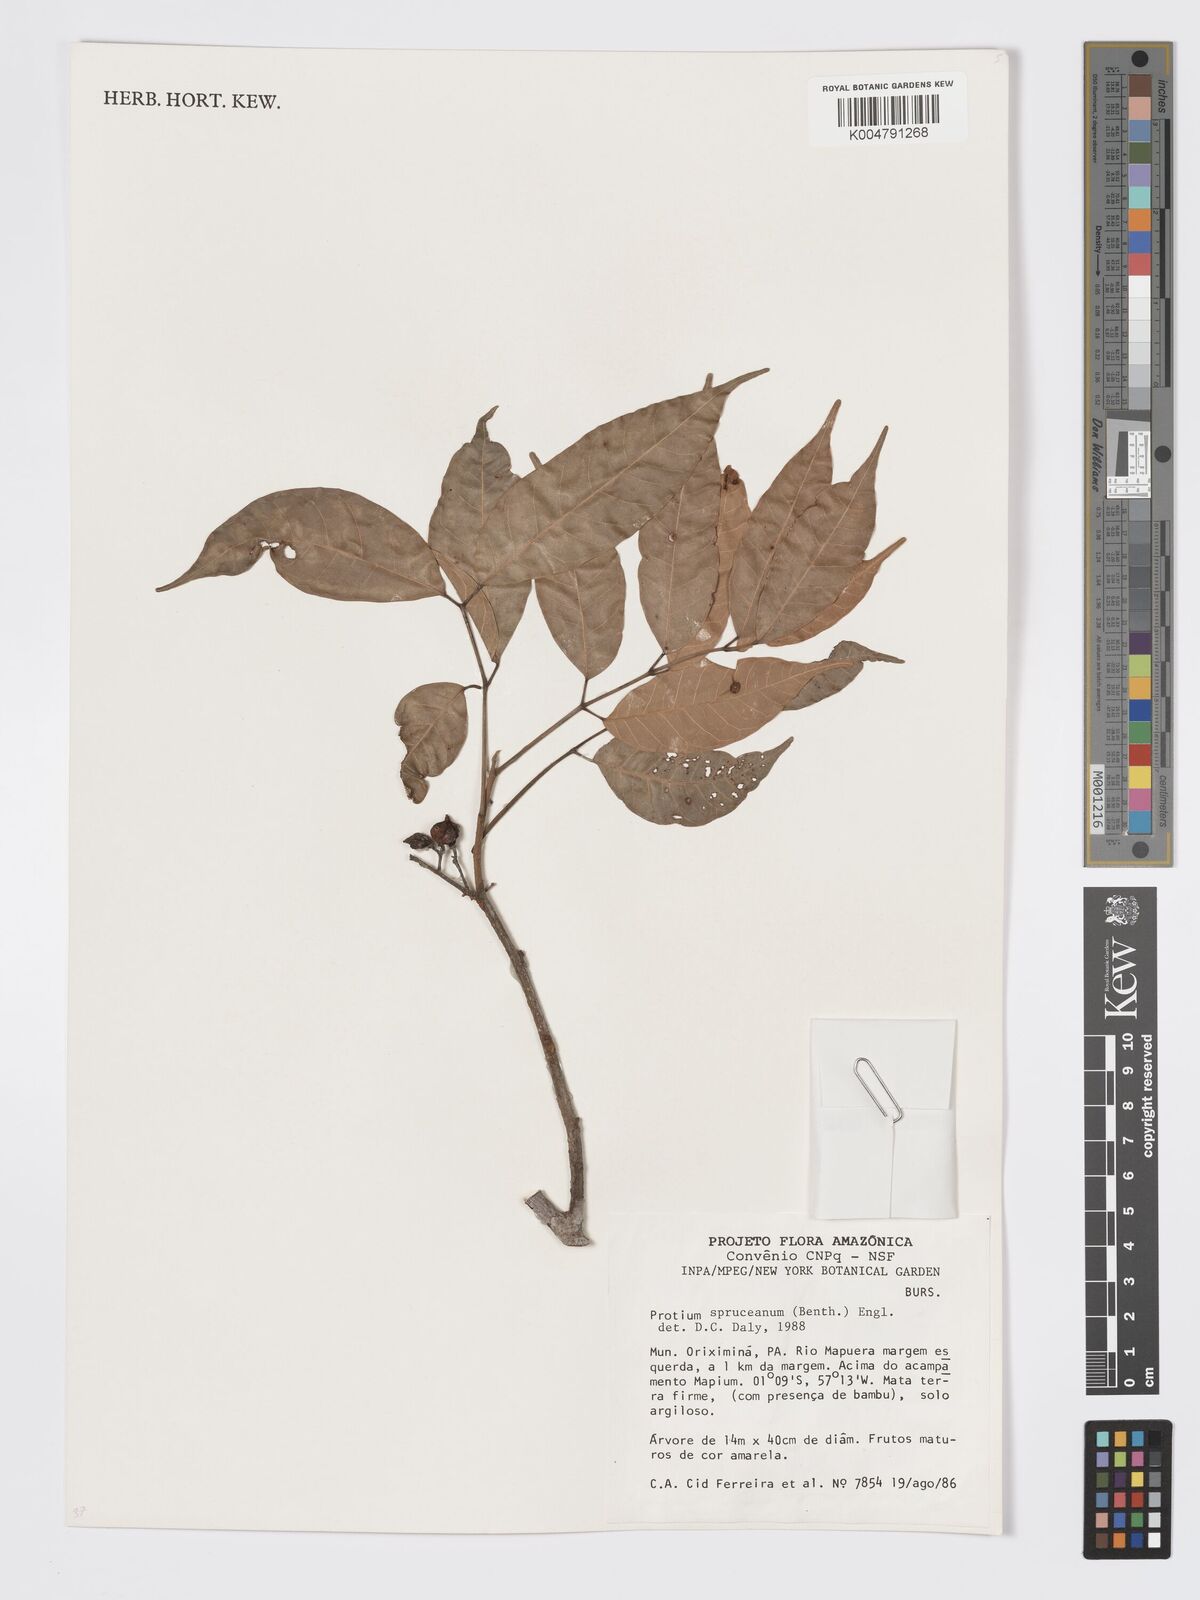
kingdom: Plantae
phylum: Tracheophyta
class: Magnoliopsida
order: Sapindales
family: Burseraceae
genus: Protium
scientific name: Protium spruceanum
